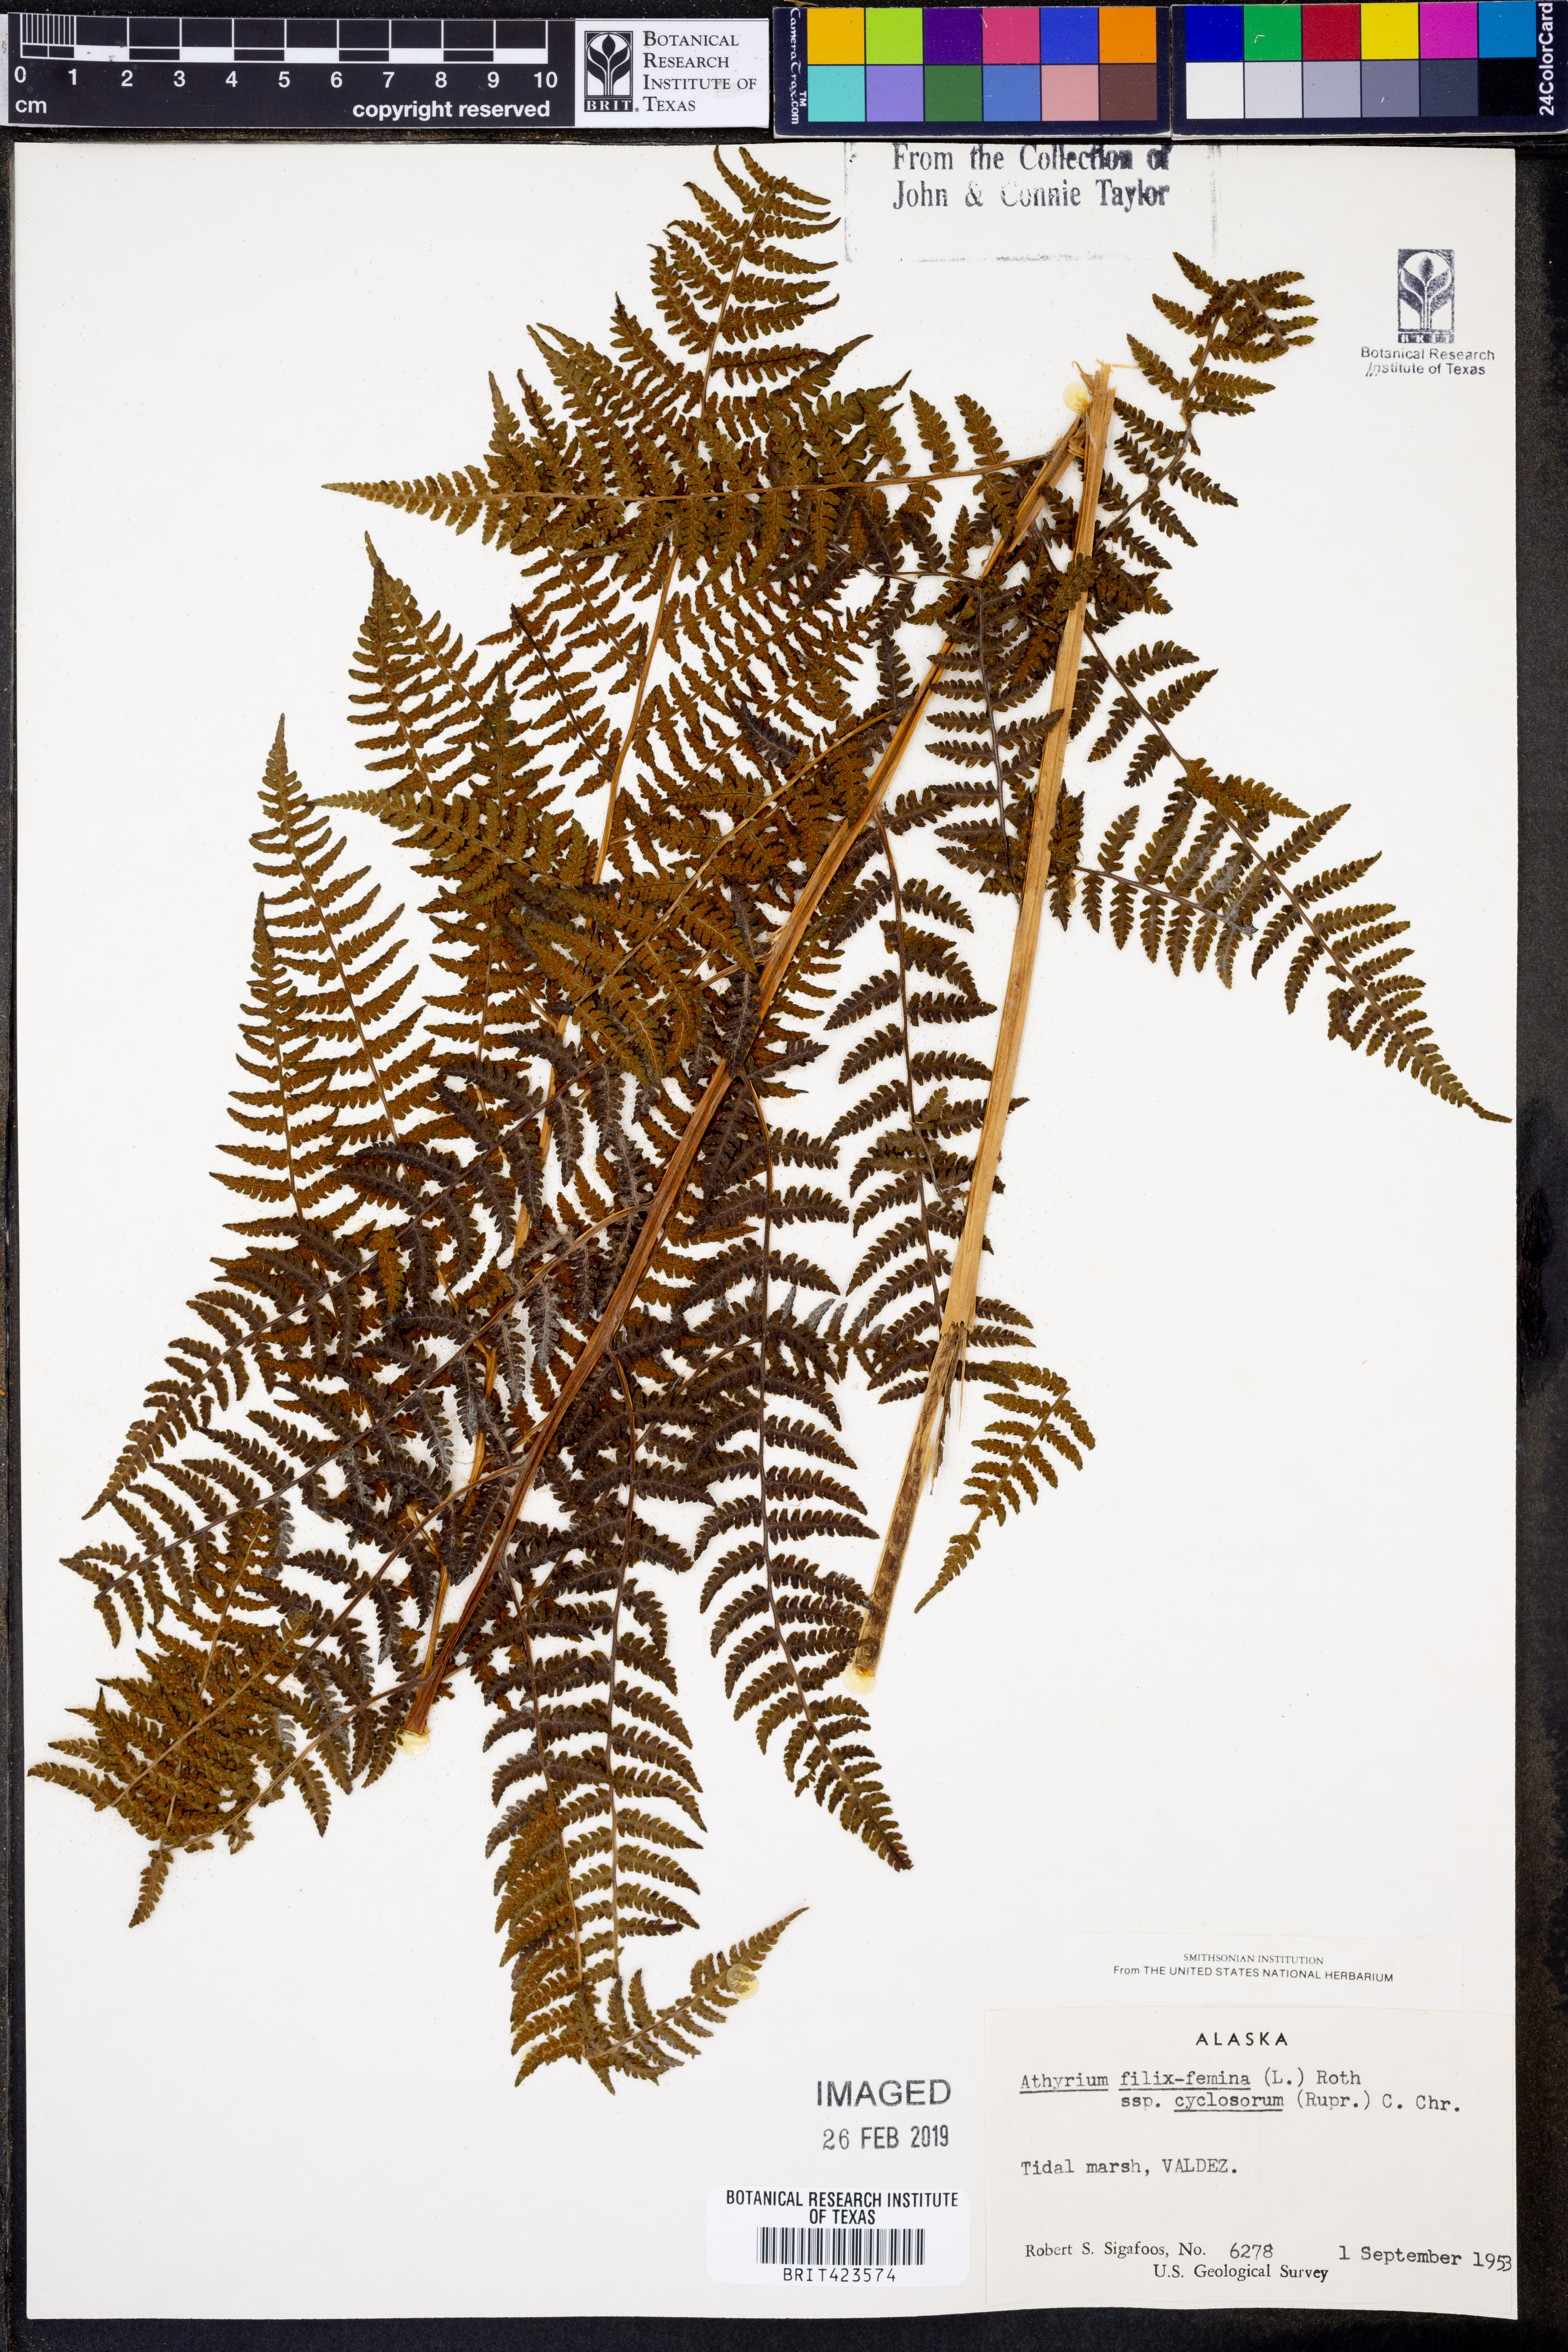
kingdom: Plantae
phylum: Tracheophyta
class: Polypodiopsida
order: Polypodiales
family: Athyriaceae
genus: Athyrium
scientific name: Athyrium cyclosorum
